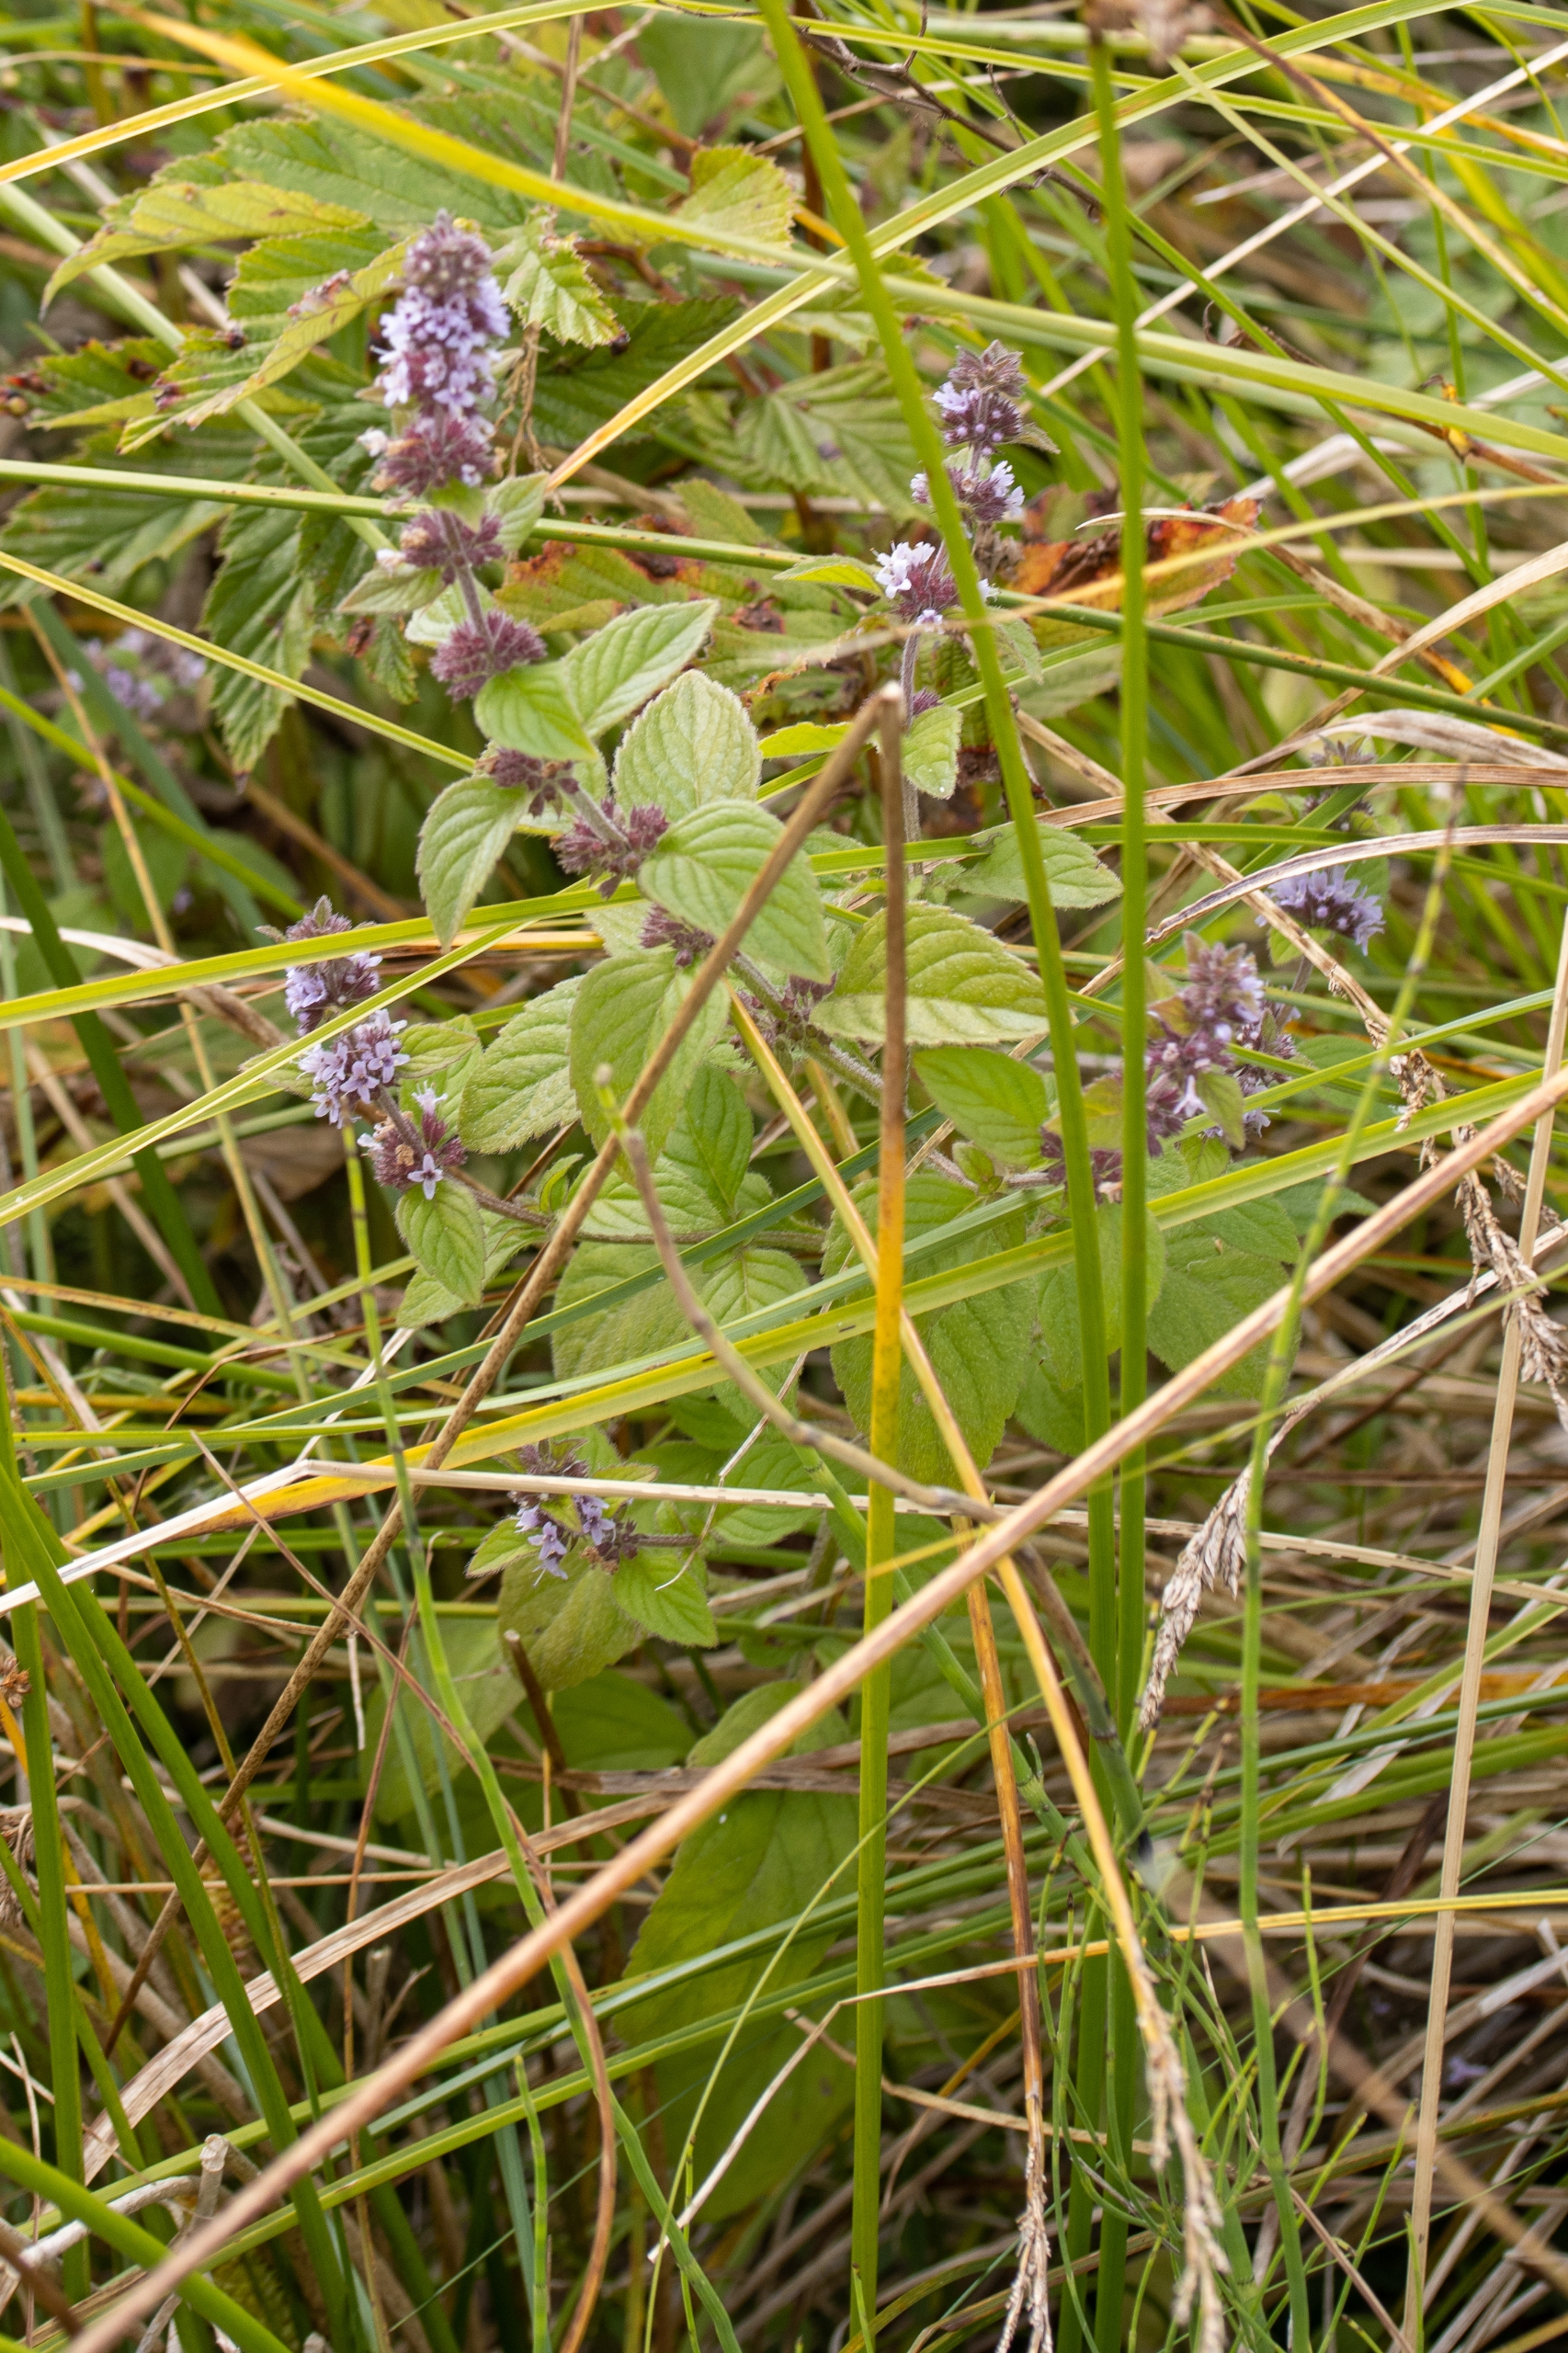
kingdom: Plantae
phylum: Tracheophyta
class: Magnoliopsida
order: Lamiales
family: Lamiaceae
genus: Mentha
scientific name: Mentha verticillata
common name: Krans-mynte
